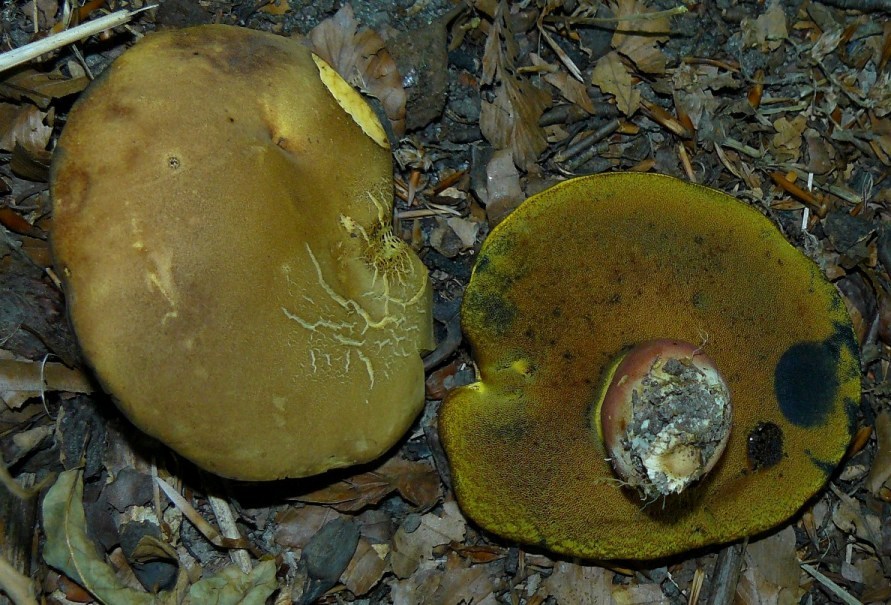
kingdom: Fungi
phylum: Basidiomycota
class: Agaricomycetes
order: Boletales
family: Boletaceae
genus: Neoboletus
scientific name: Neoboletus erythropus
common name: punktstokket indigorørhat
